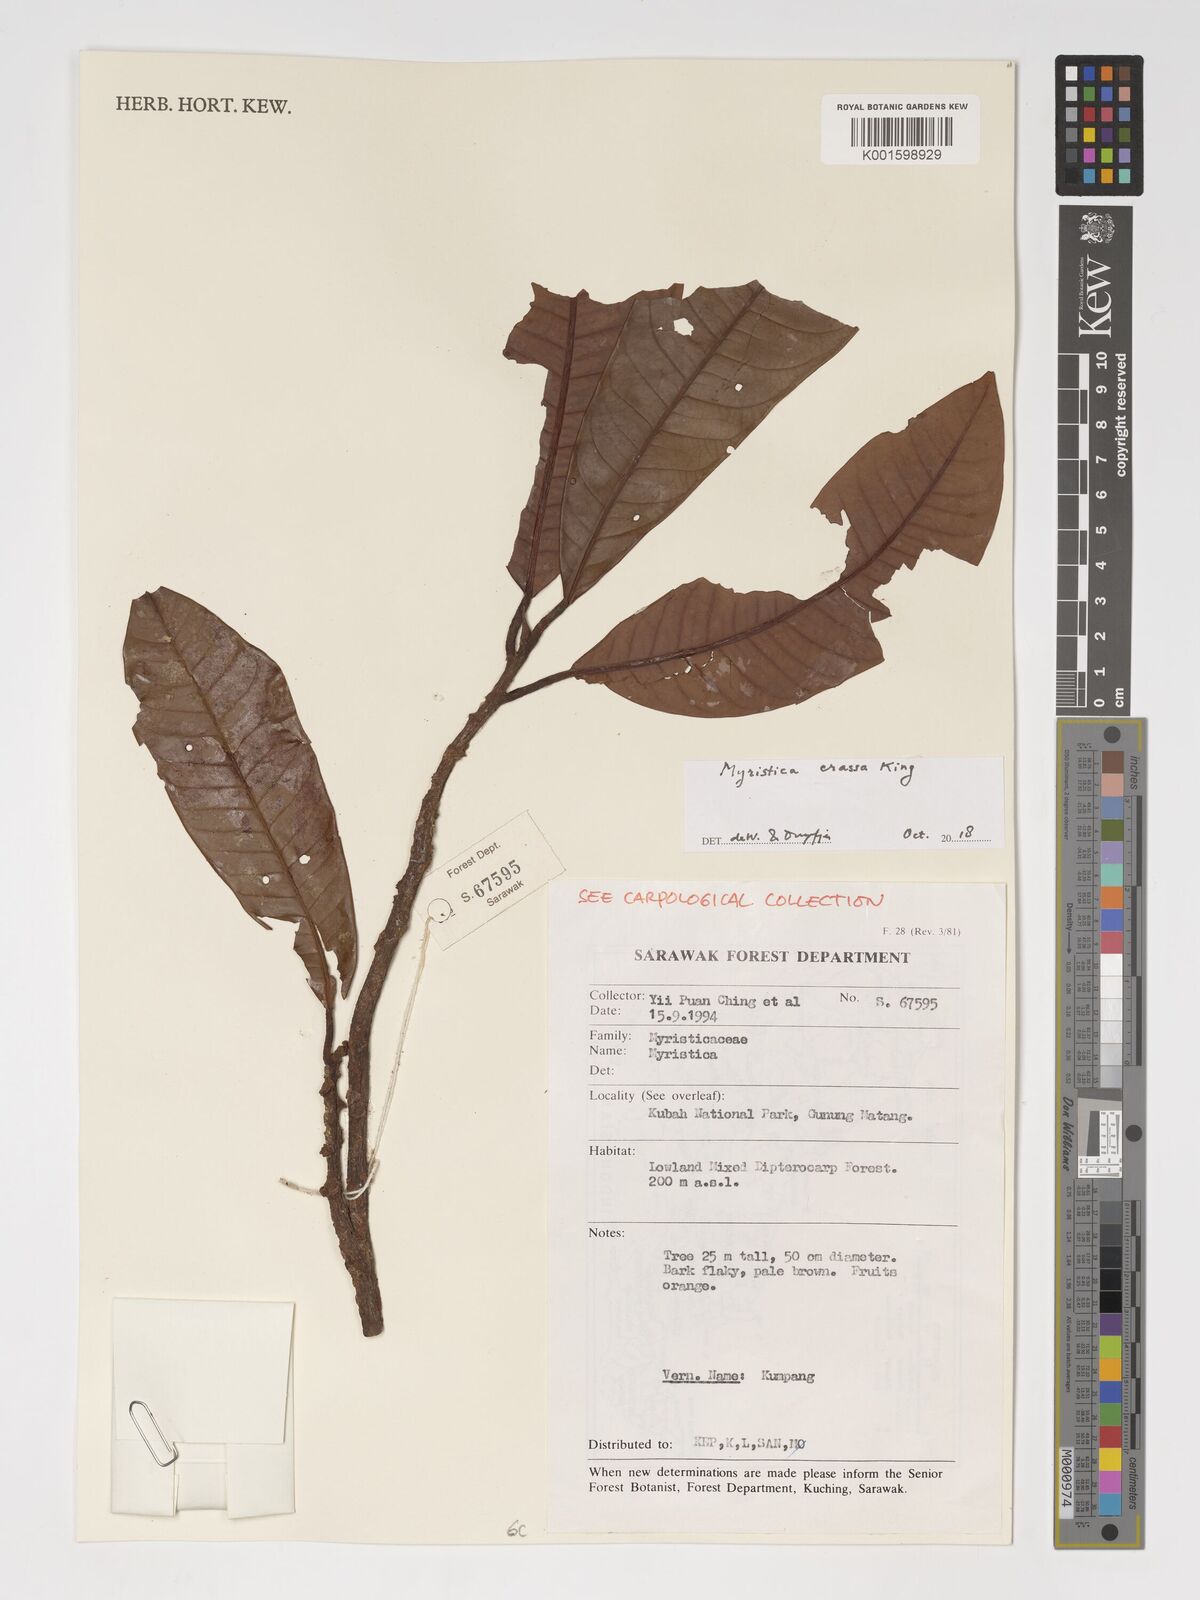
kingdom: Plantae
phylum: Tracheophyta
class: Magnoliopsida
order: Magnoliales
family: Myristicaceae
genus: Myristica
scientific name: Myristica crassa
